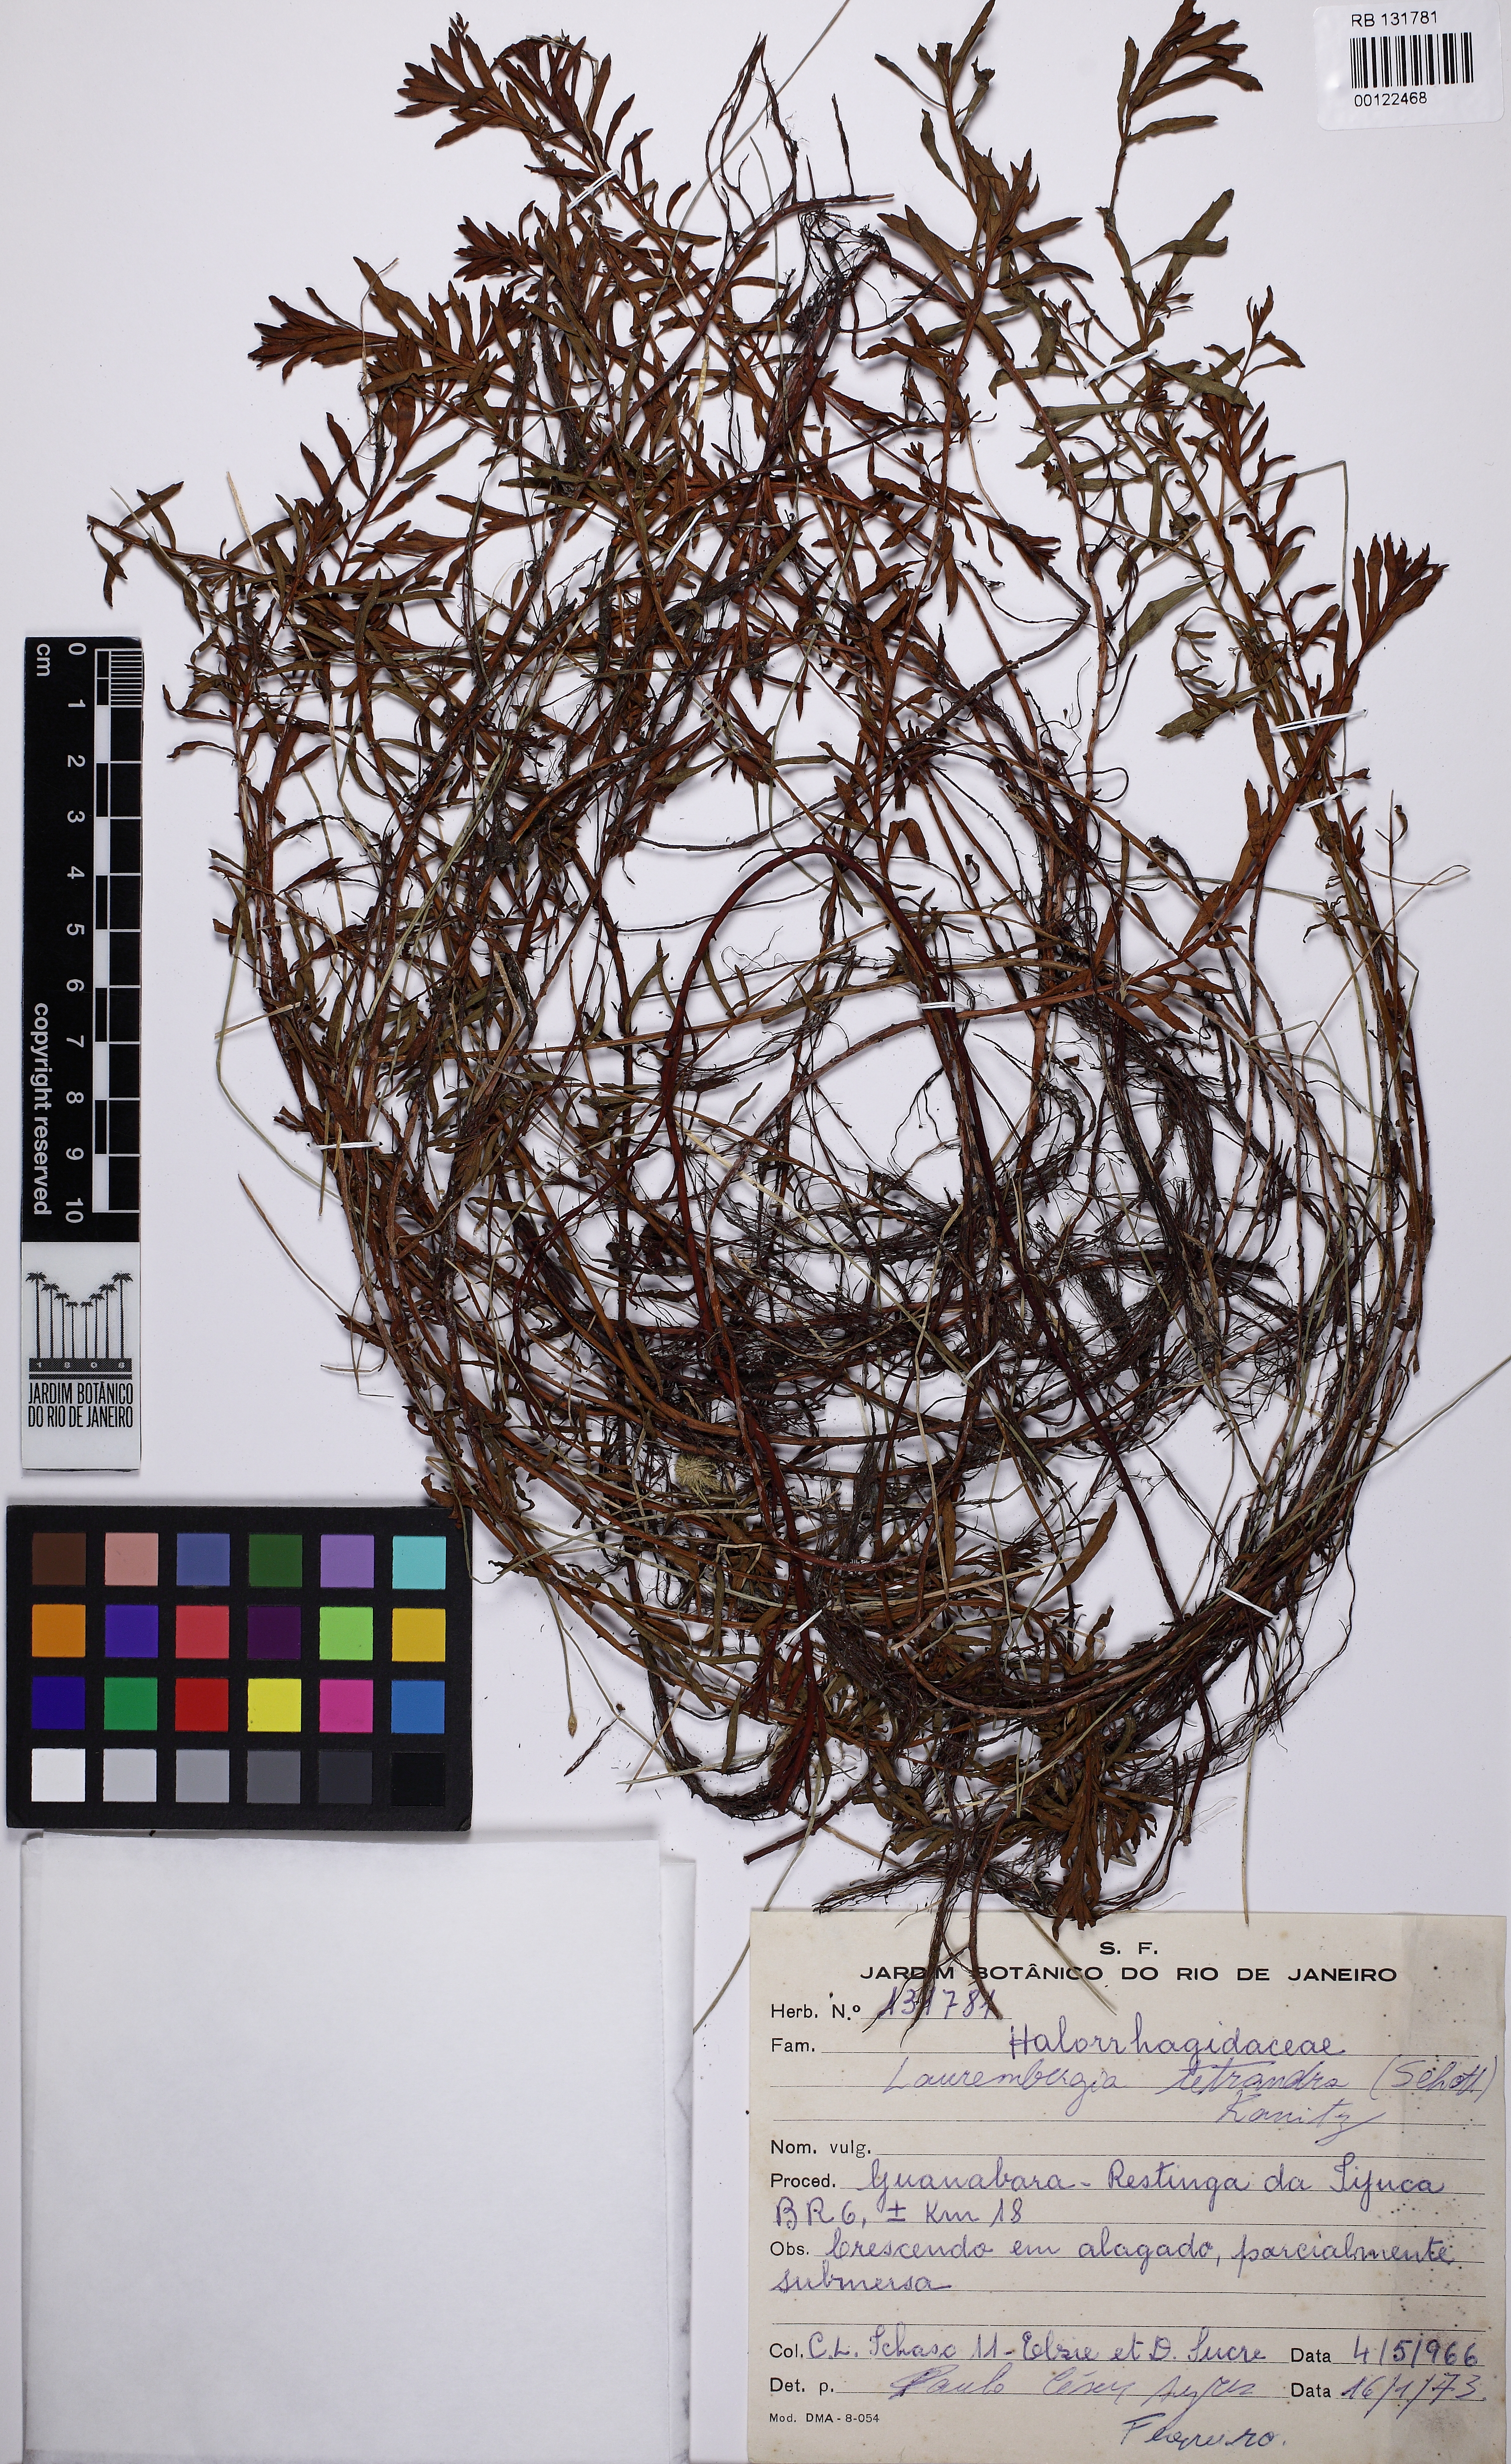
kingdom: Plantae
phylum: Tracheophyta
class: Magnoliopsida
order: Saxifragales
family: Haloragaceae
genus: Laurembergia
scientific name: Laurembergia tetrandra
